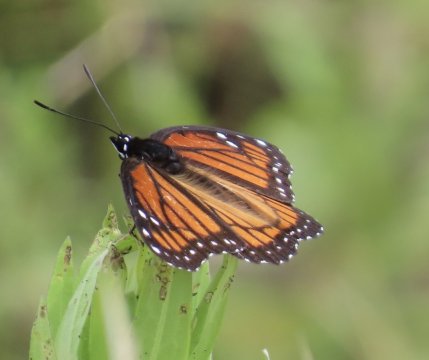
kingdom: Animalia
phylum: Arthropoda
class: Insecta
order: Lepidoptera
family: Nymphalidae
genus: Limenitis
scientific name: Limenitis archippus
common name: Viceroy
